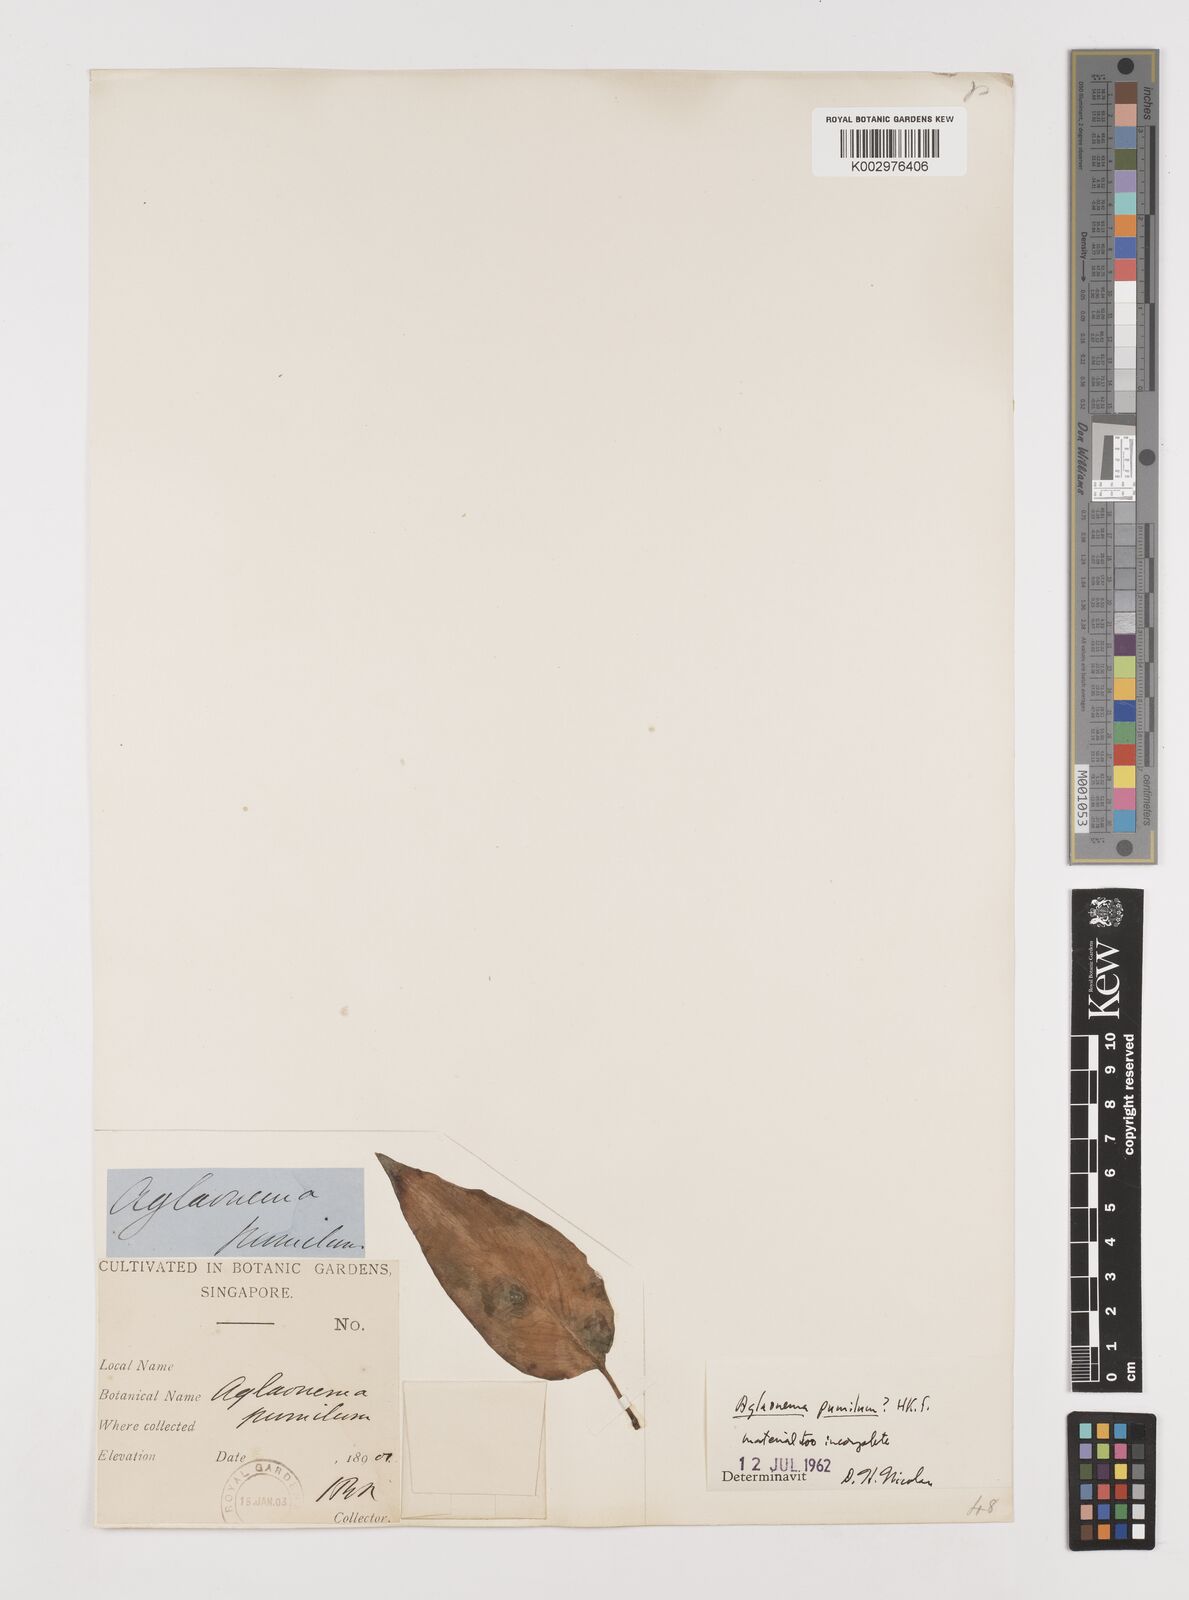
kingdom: Plantae
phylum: Tracheophyta
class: Liliopsida
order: Alismatales
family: Araceae
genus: Aglaonema
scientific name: Aglaonema pumilum
